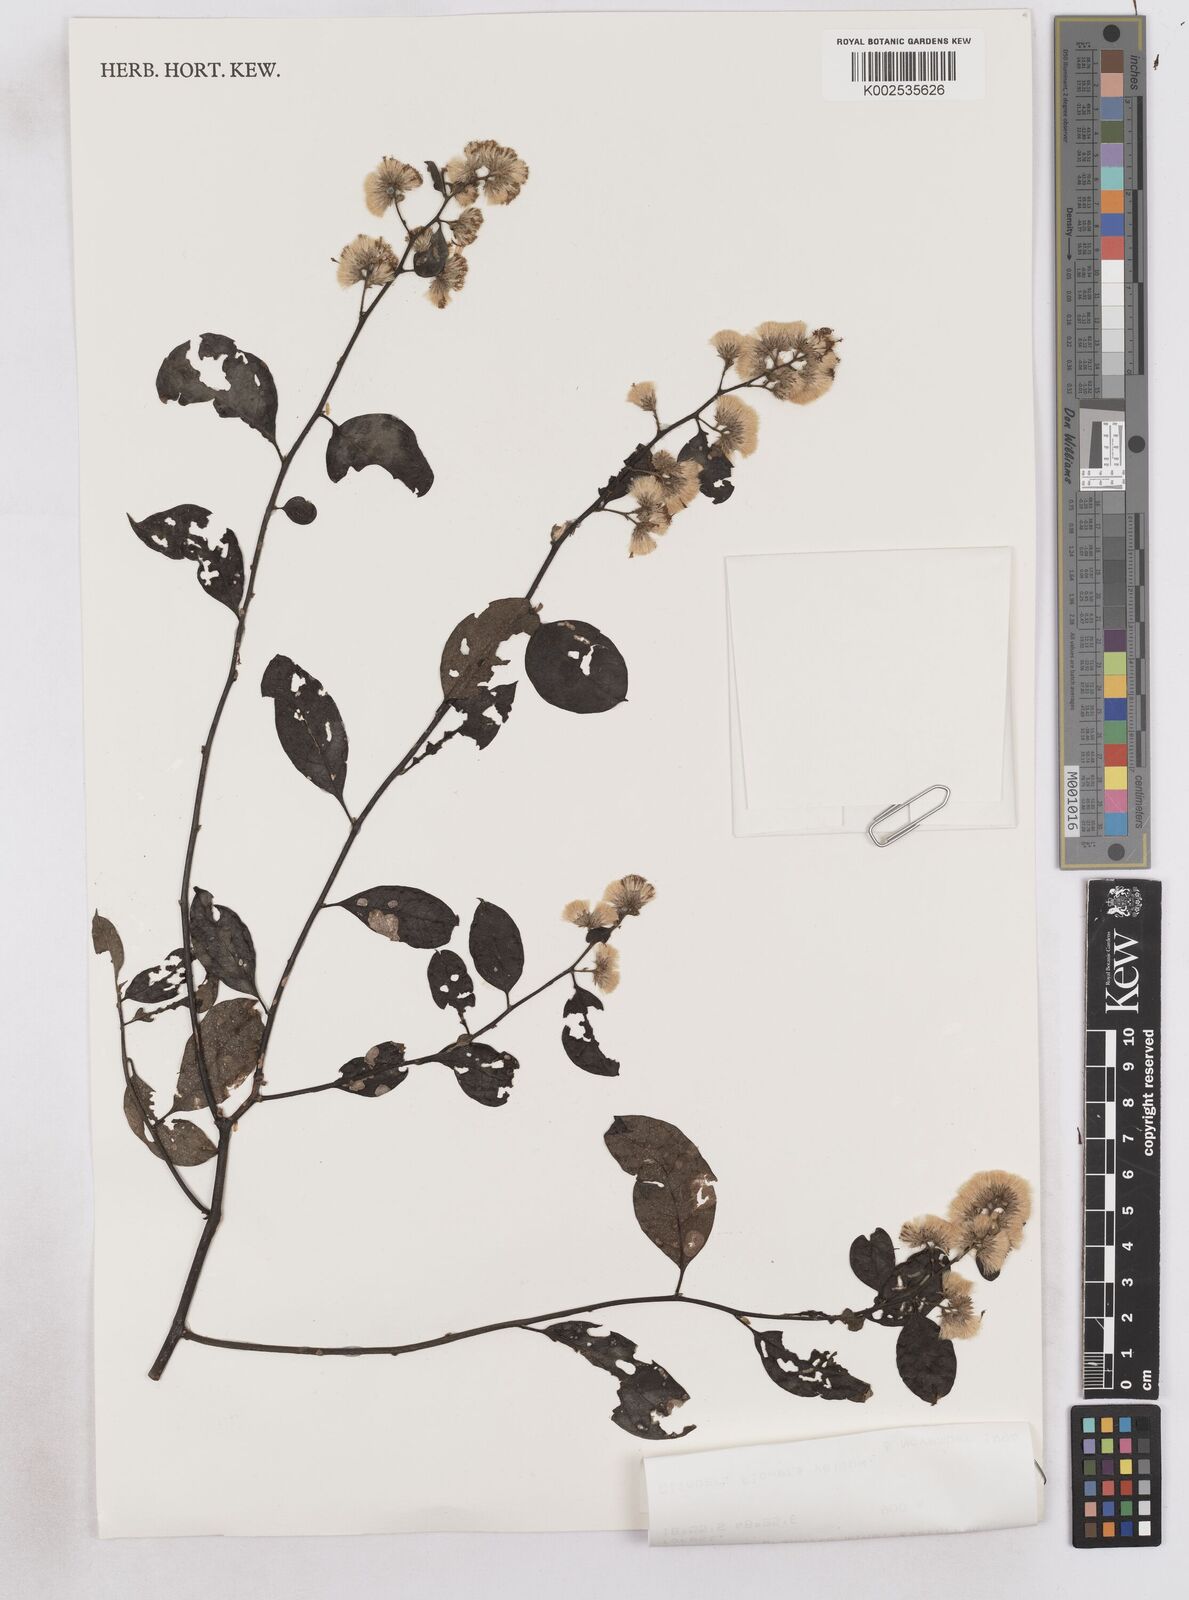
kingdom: Plantae
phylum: Tracheophyta
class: Magnoliopsida
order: Asterales
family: Asteraceae
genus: Distephanus
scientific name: Distephanus lastellei
